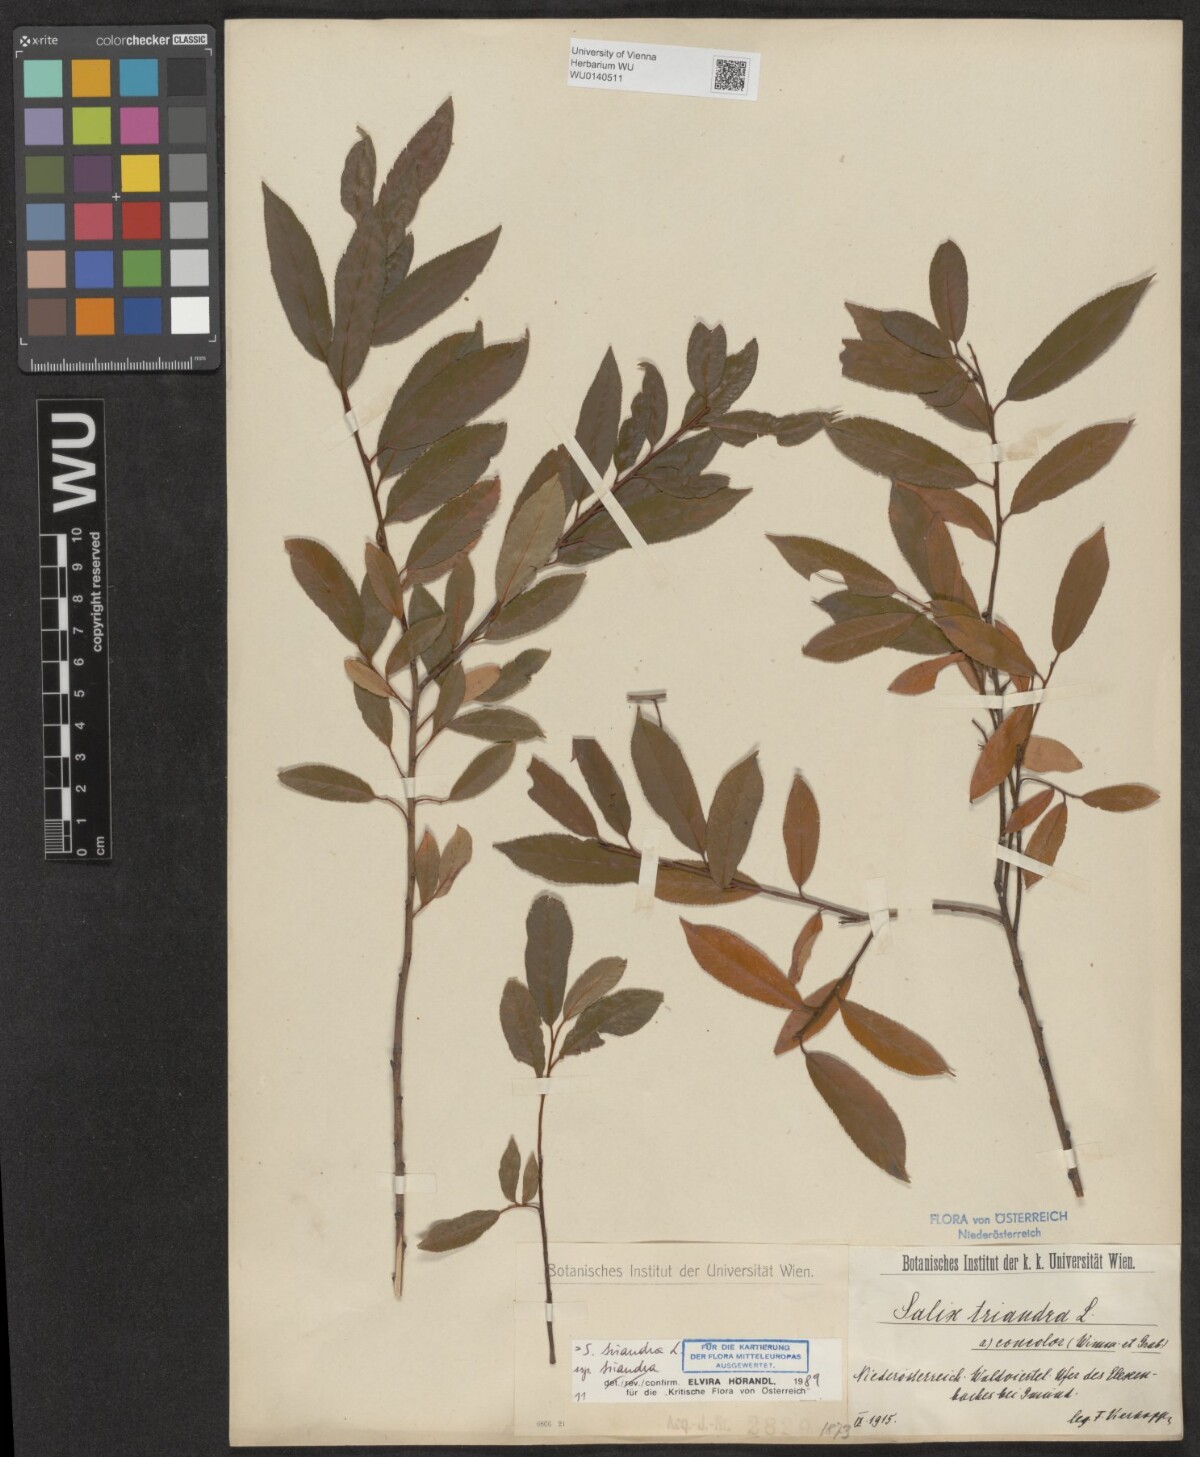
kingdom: Plantae
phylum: Tracheophyta
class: Magnoliopsida
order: Malpighiales
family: Salicaceae
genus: Salix
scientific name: Salix triandra
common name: Almond willow
